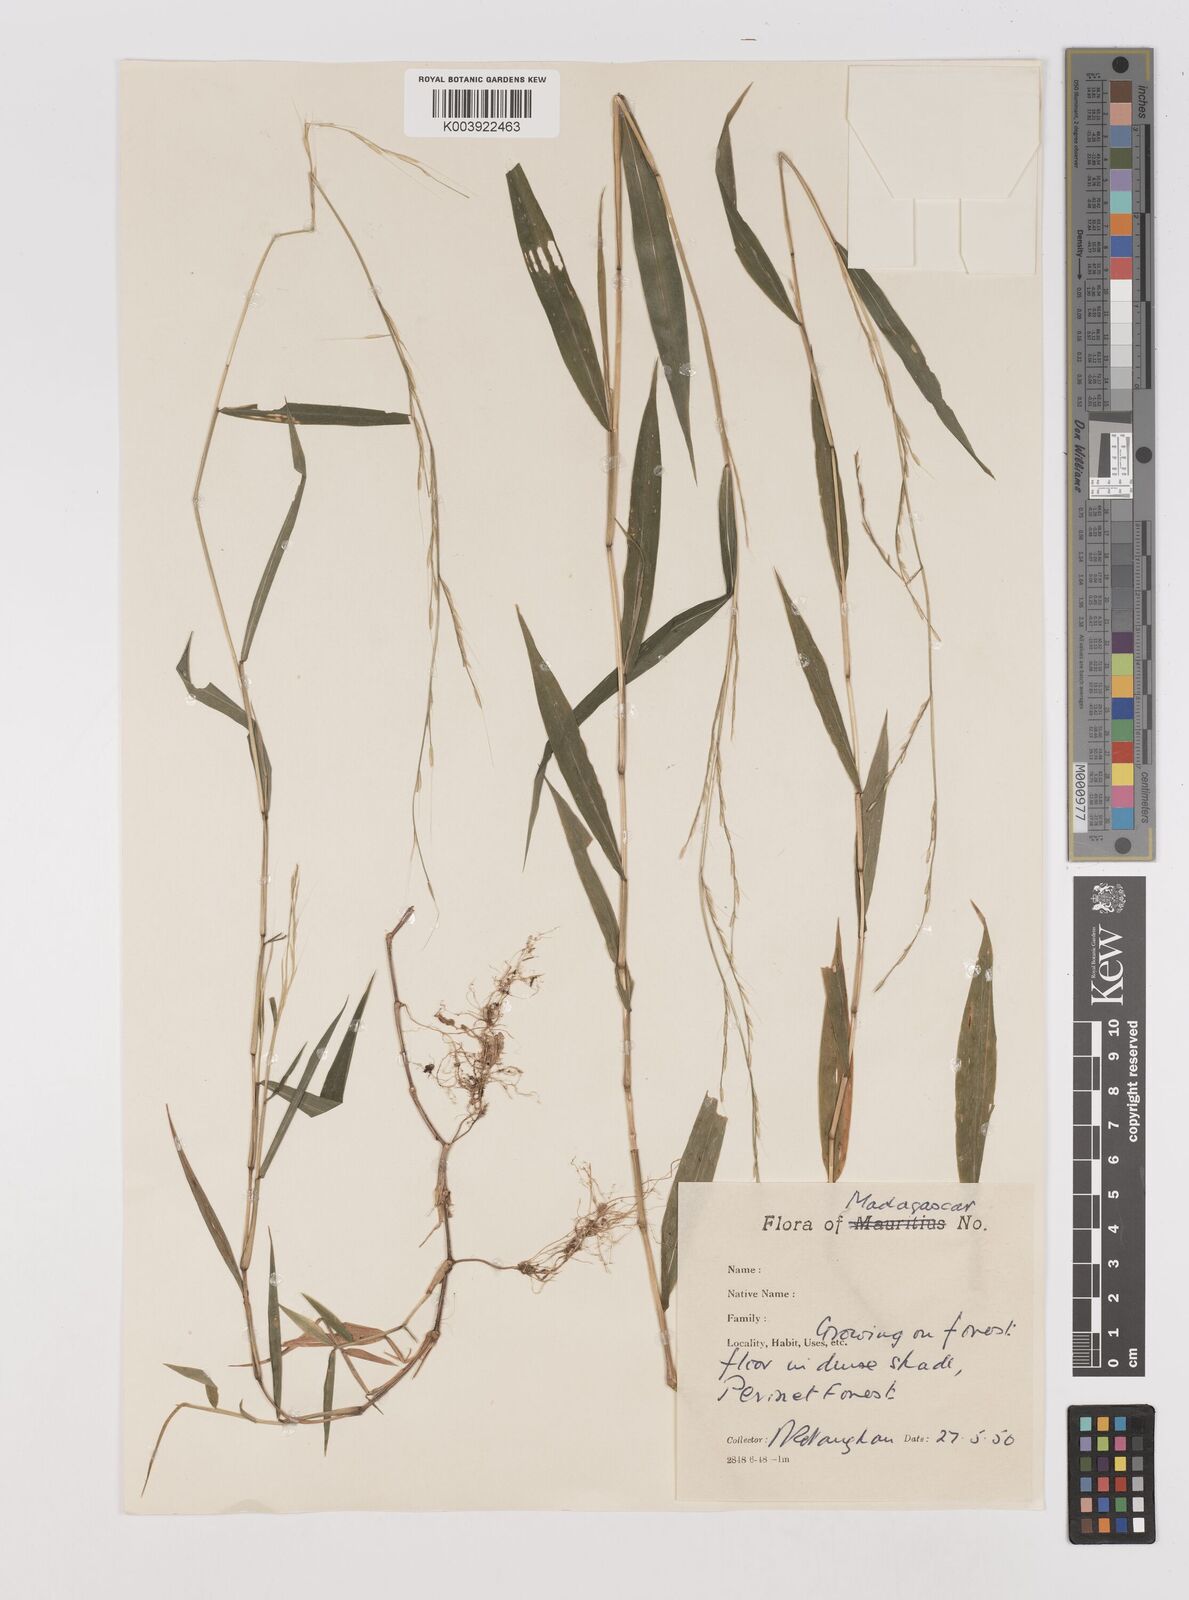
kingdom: Plantae
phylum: Tracheophyta
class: Liliopsida
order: Poales
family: Poaceae
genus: Poecilostachys
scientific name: Poecilostachys baronis
